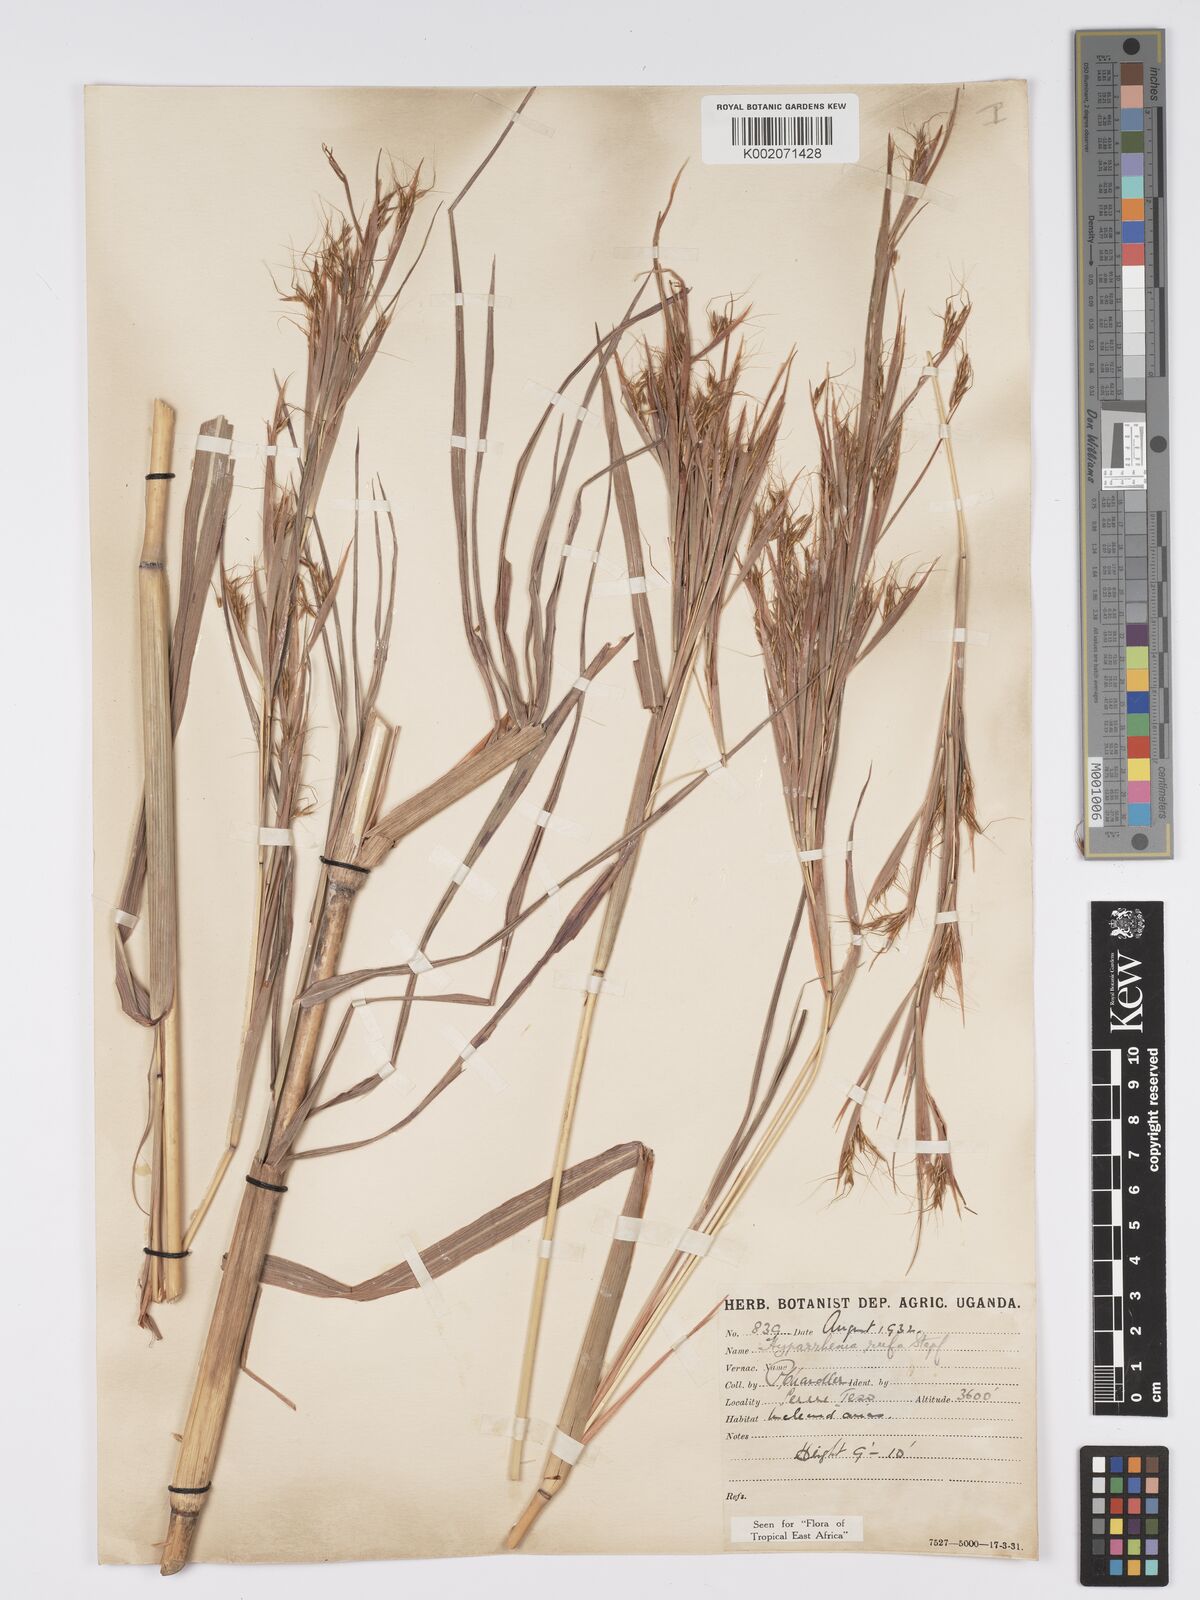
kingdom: Plantae
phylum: Tracheophyta
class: Liliopsida
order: Poales
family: Poaceae
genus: Hyparrhenia
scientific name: Hyparrhenia rufa
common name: Jaraguagrass
